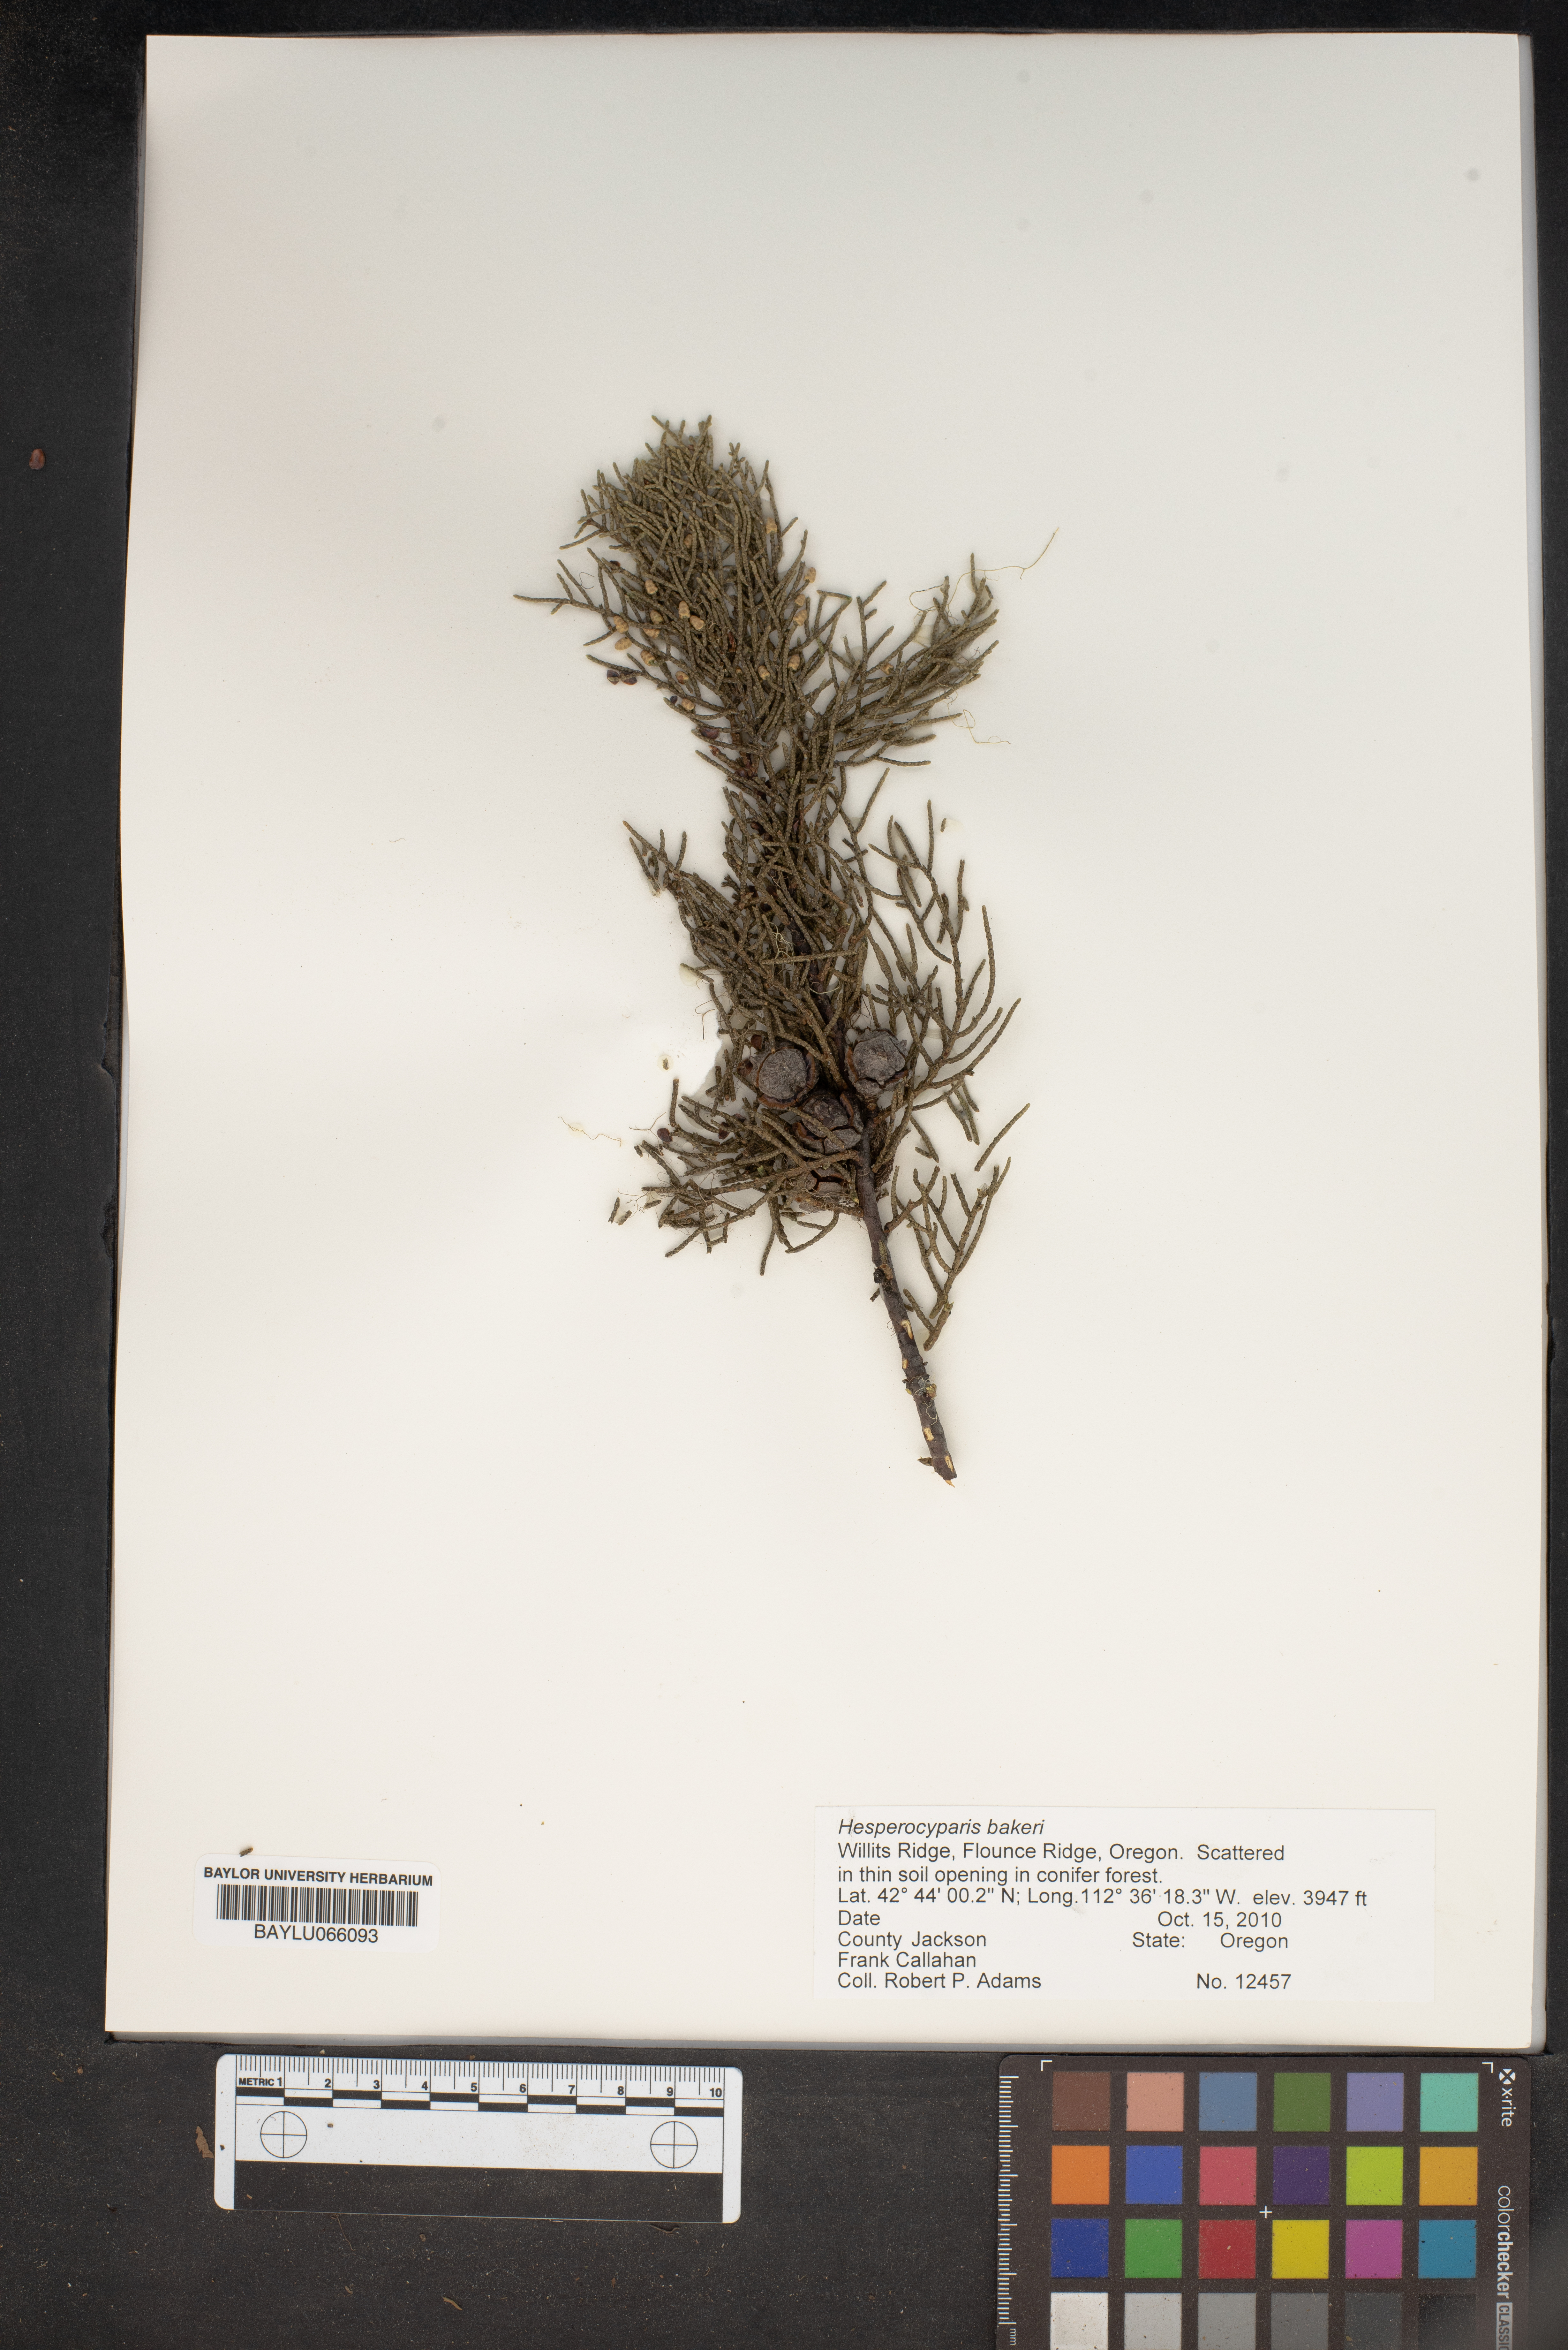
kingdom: Plantae
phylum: Tracheophyta
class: Pinopsida
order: Pinales
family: Cupressaceae
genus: Cupressus
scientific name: Cupressus bakeri
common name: Baker cypress
